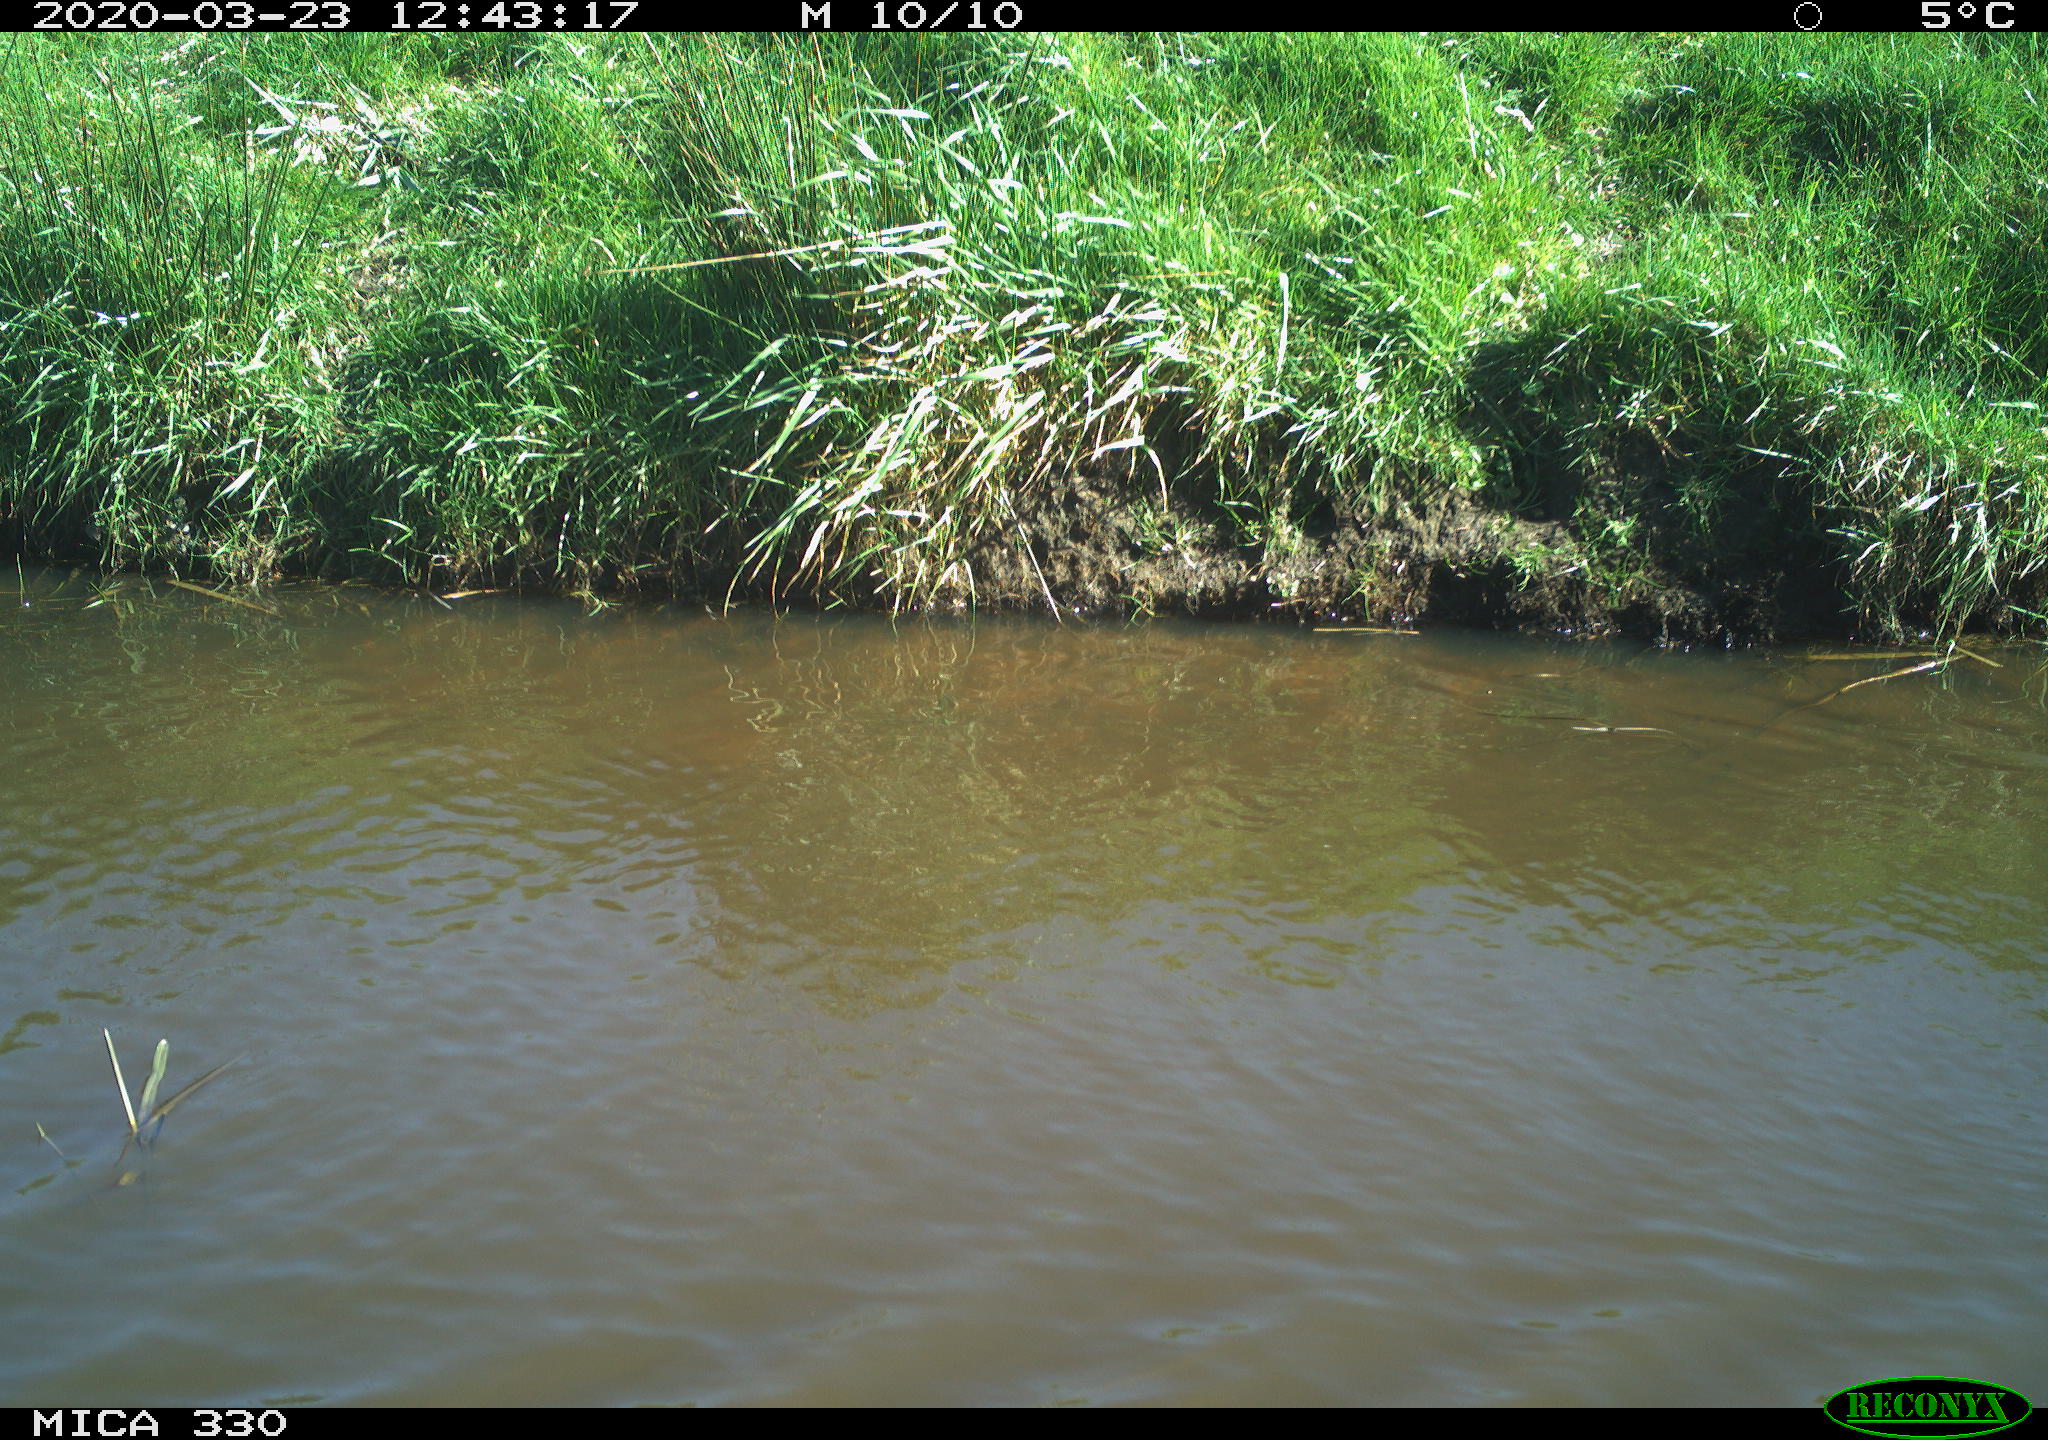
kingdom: Animalia
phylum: Chordata
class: Aves
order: Anseriformes
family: Anatidae
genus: Anas
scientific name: Anas platyrhynchos
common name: Mallard
